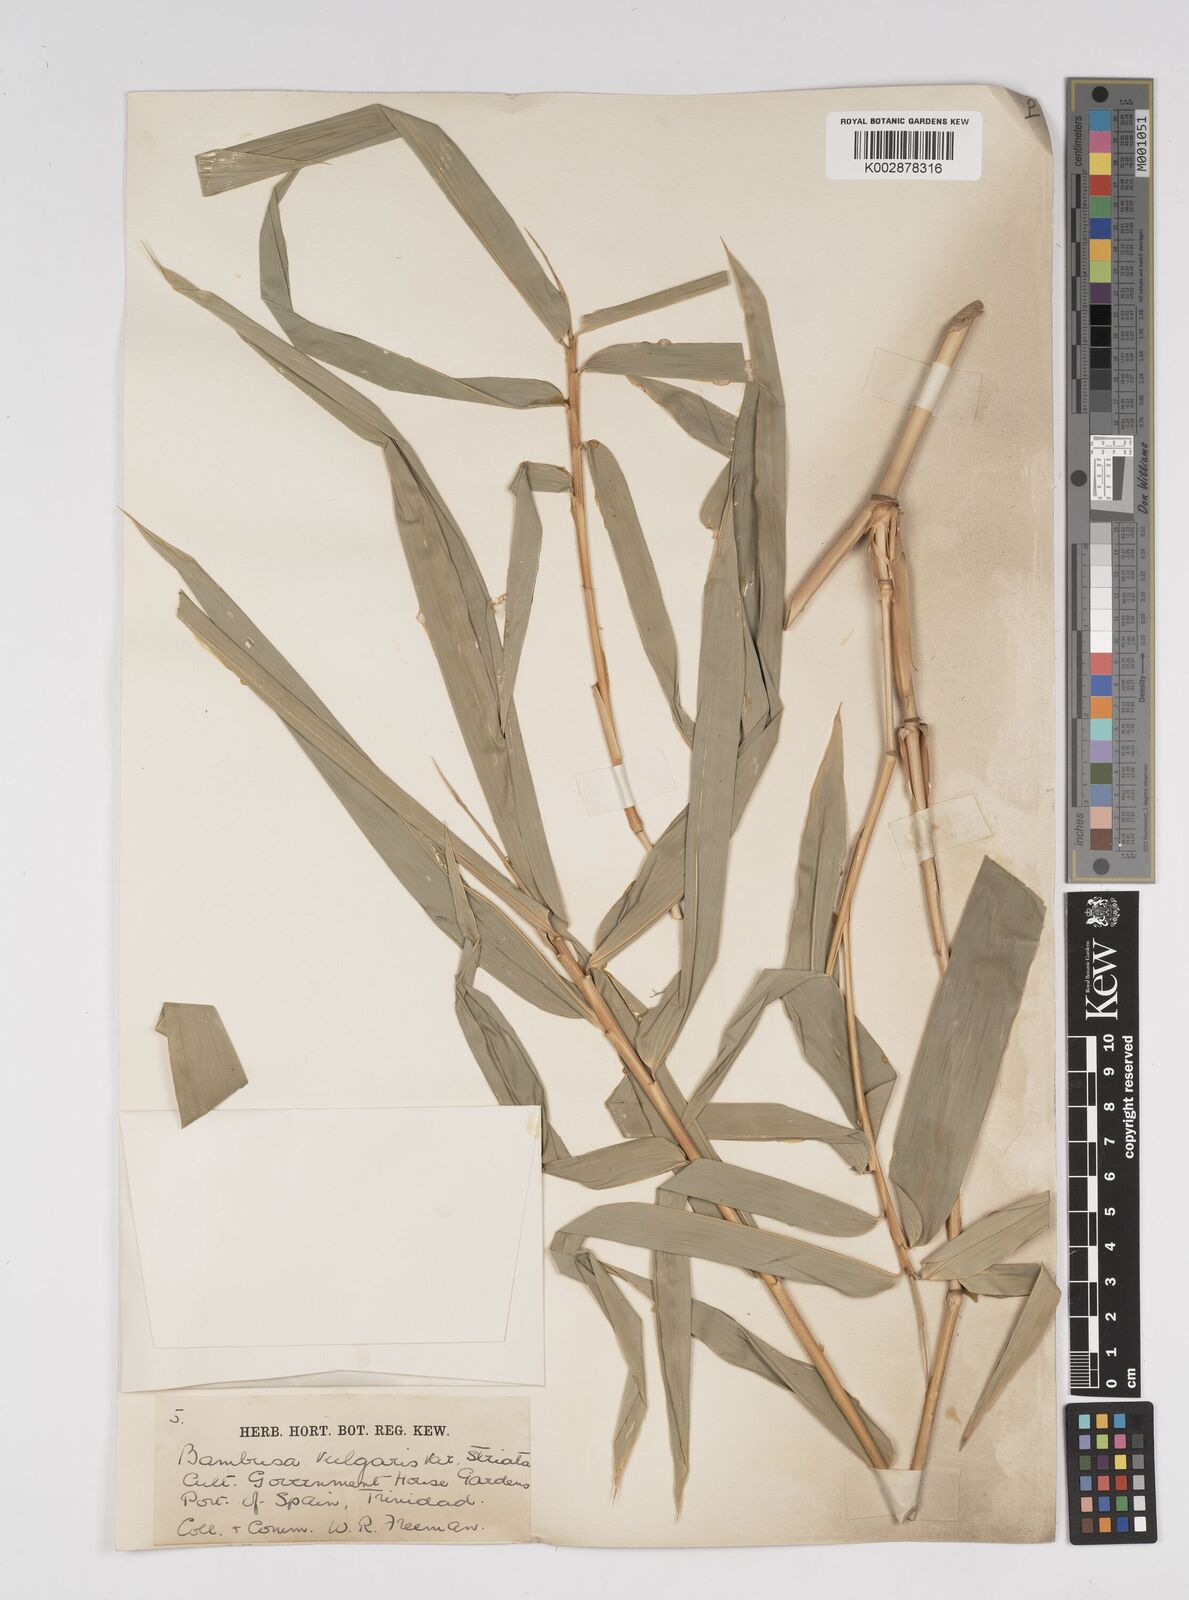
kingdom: Plantae
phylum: Tracheophyta
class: Liliopsida
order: Poales
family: Poaceae
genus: Bambusa
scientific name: Bambusa
